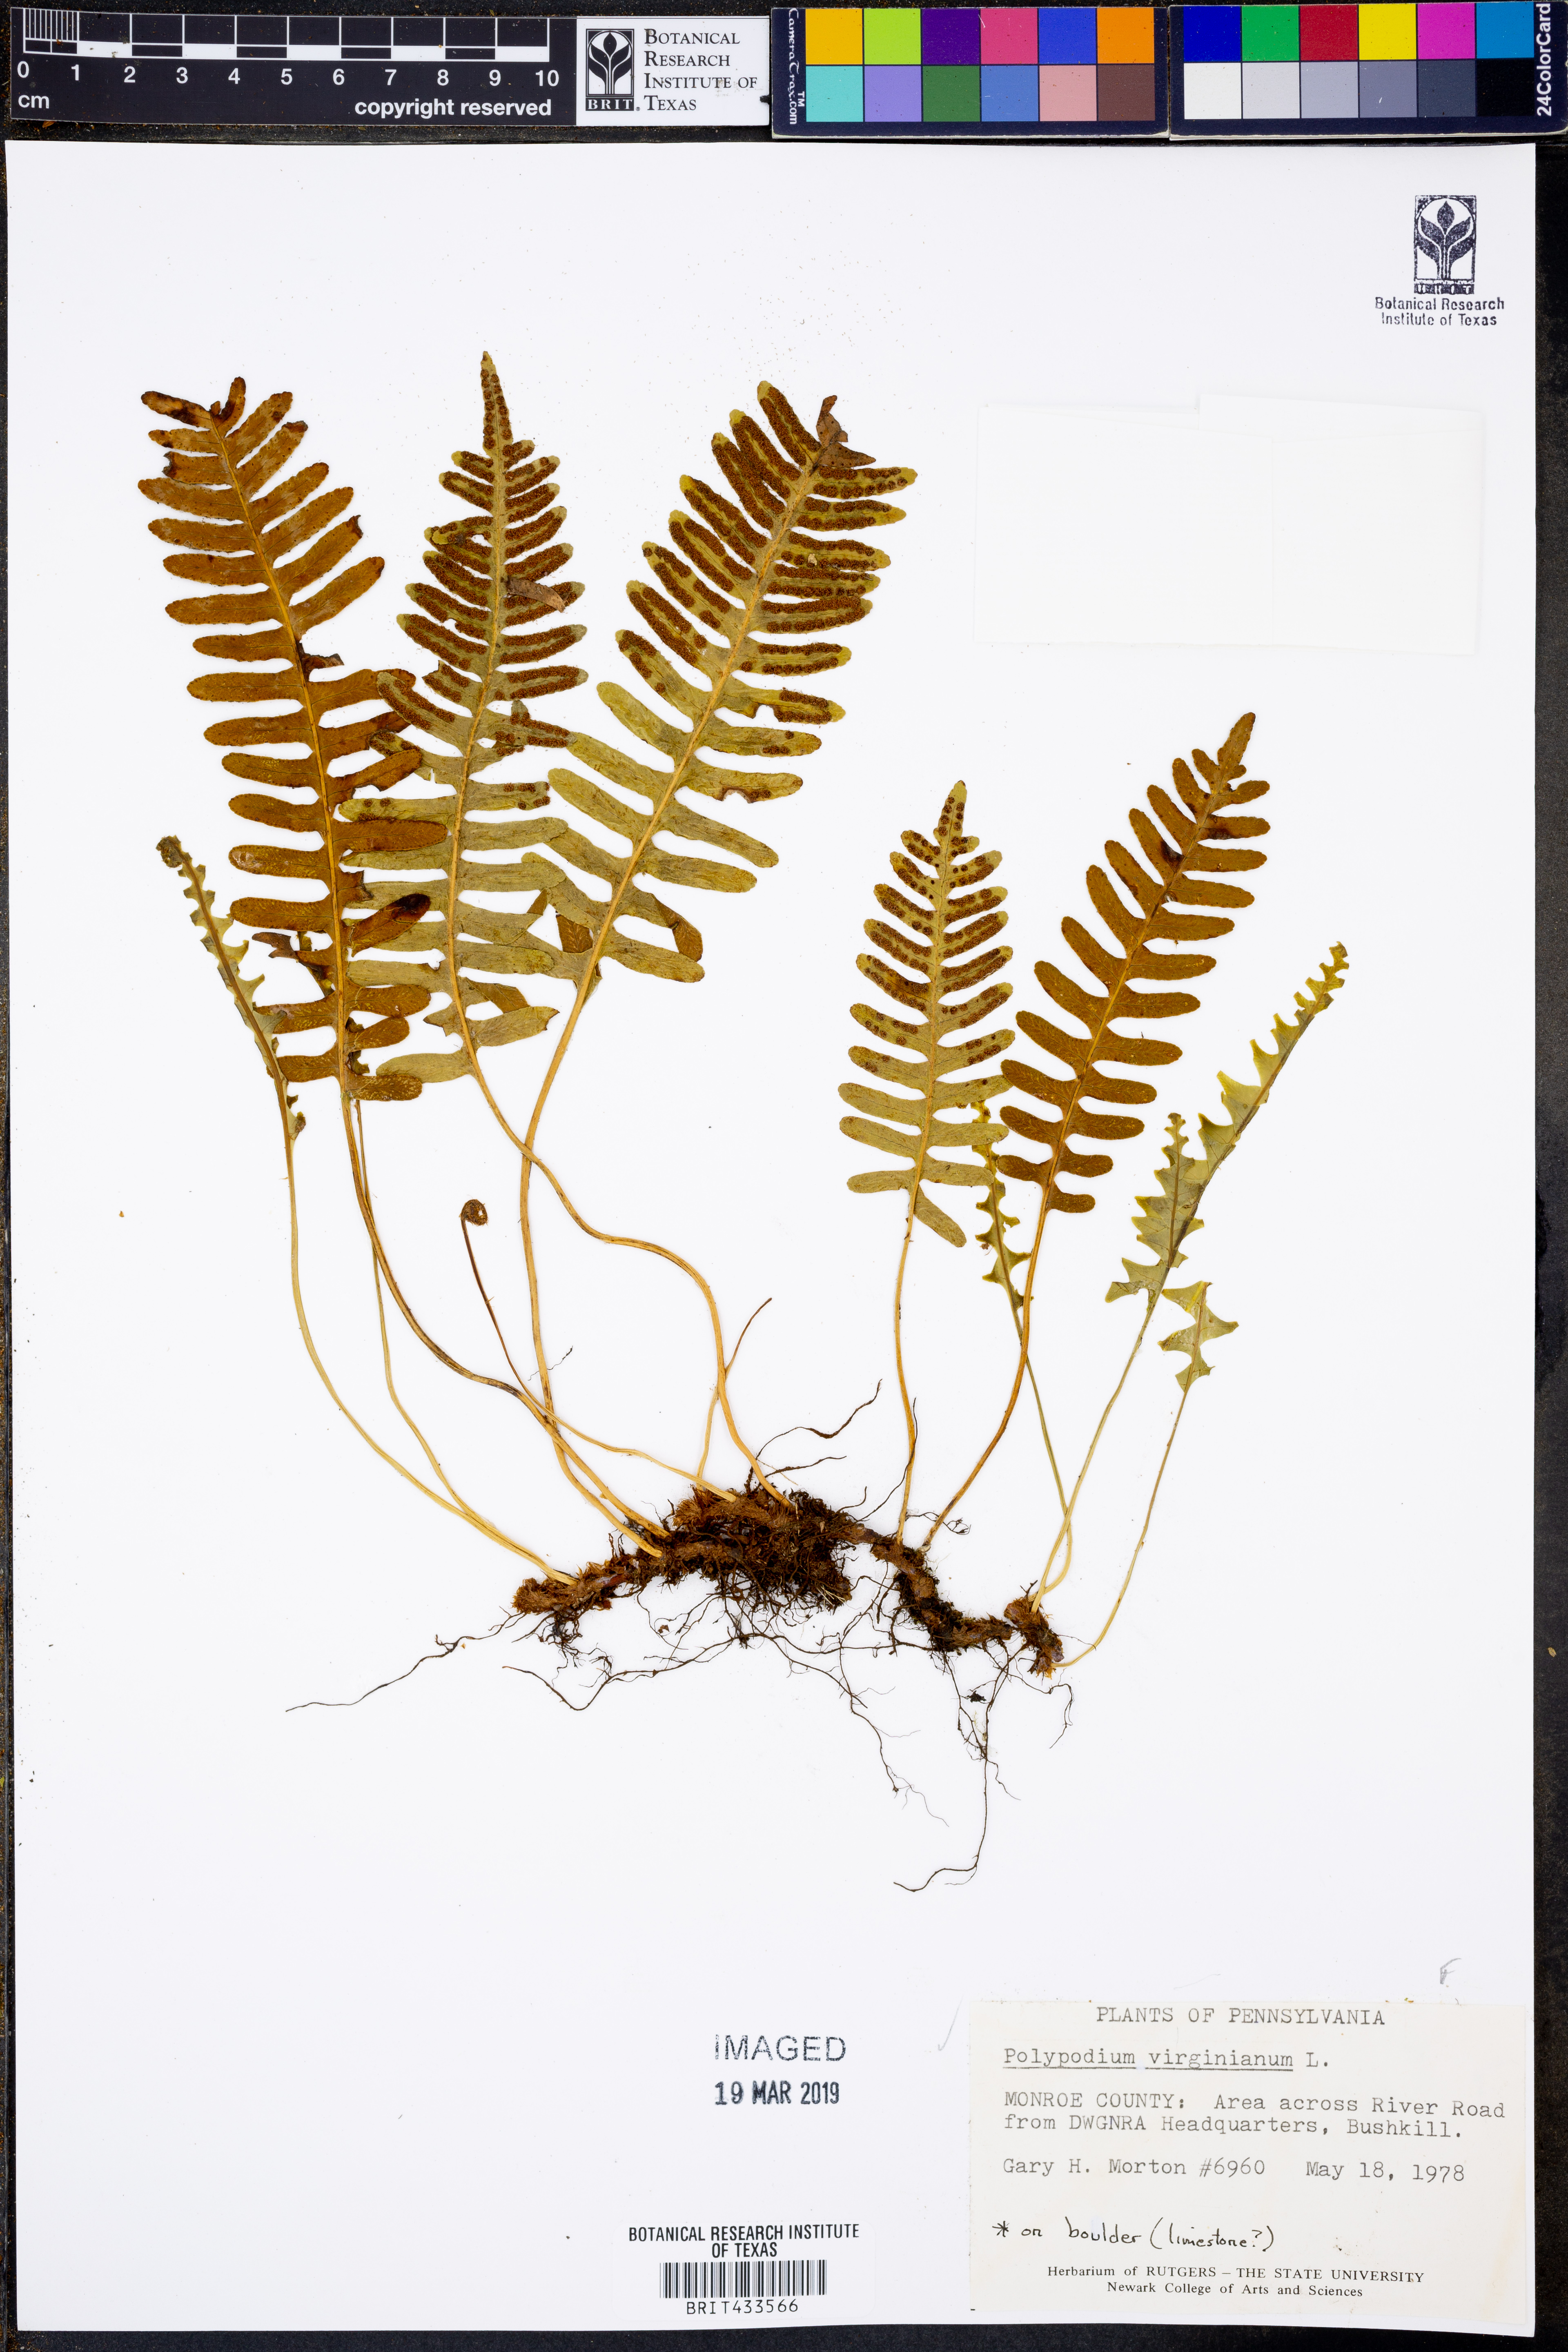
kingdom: Plantae
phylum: Tracheophyta
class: Polypodiopsida
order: Polypodiales
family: Polypodiaceae
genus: Polypodium
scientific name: Polypodium virginianum
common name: American wall fern
